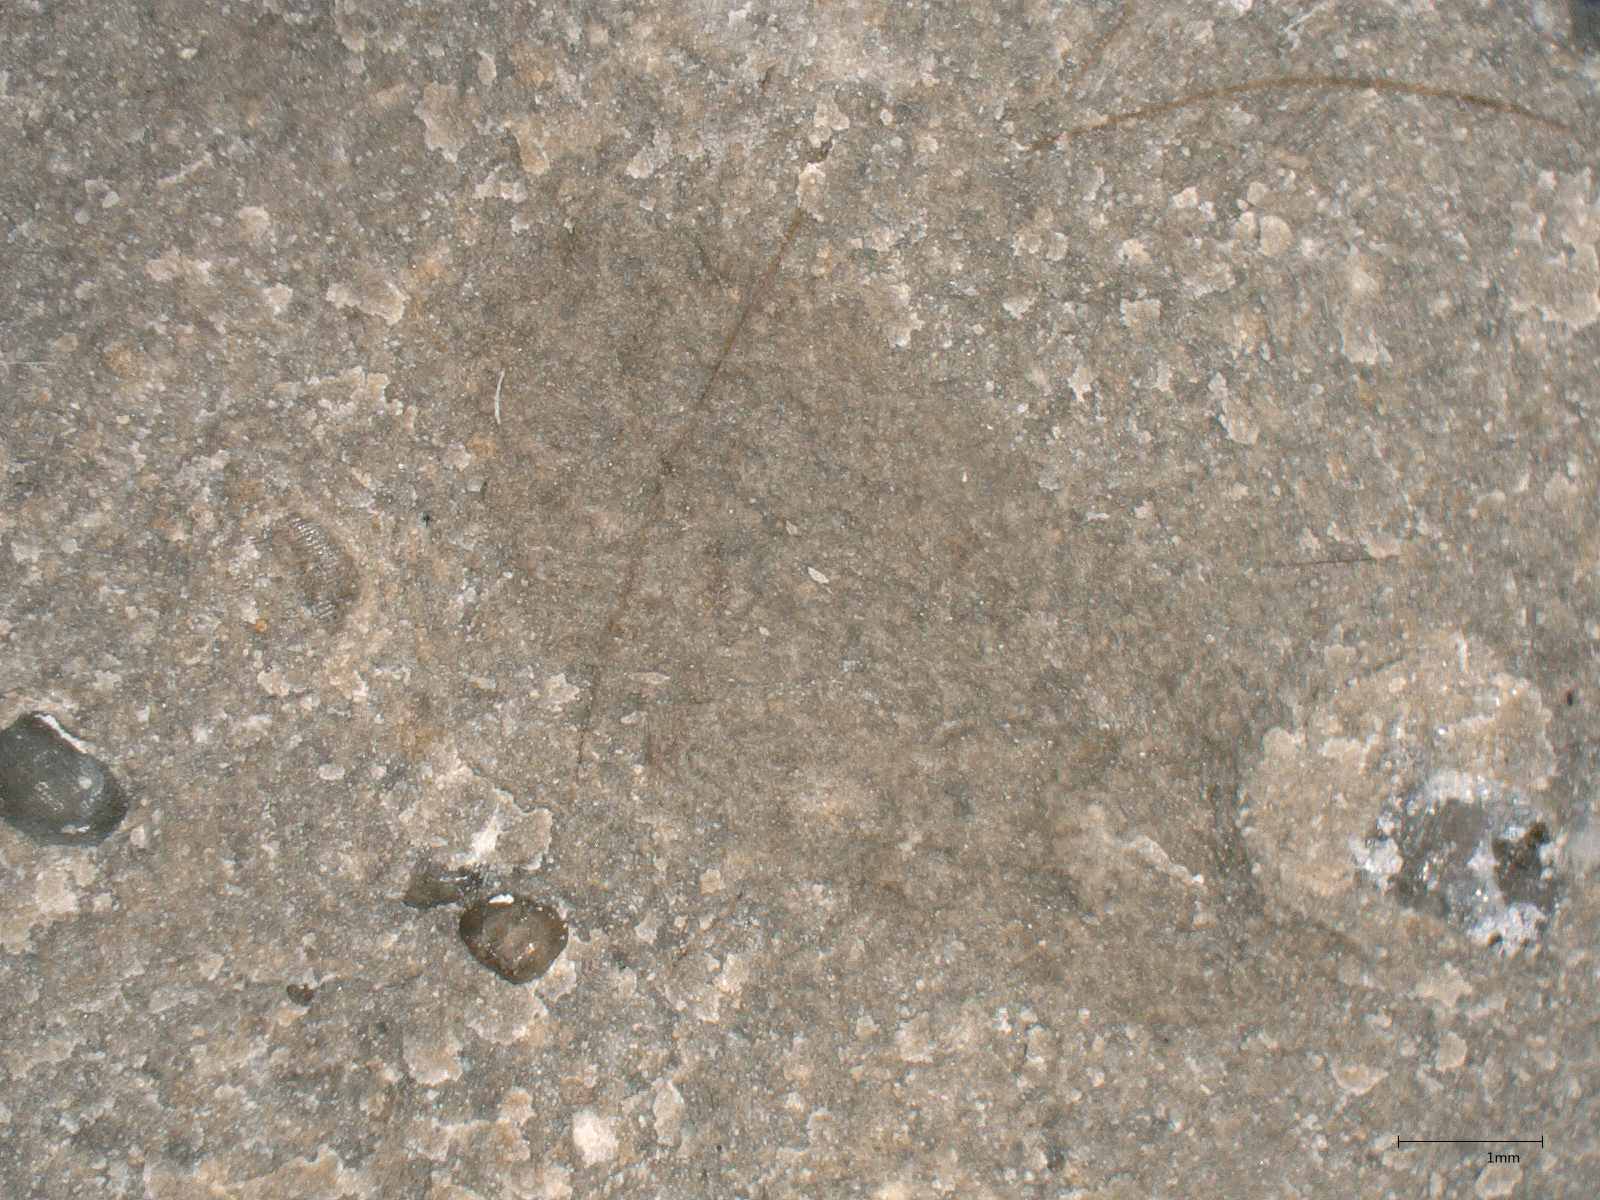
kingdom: Animalia
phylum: Arthropoda
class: Insecta
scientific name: Insecta
